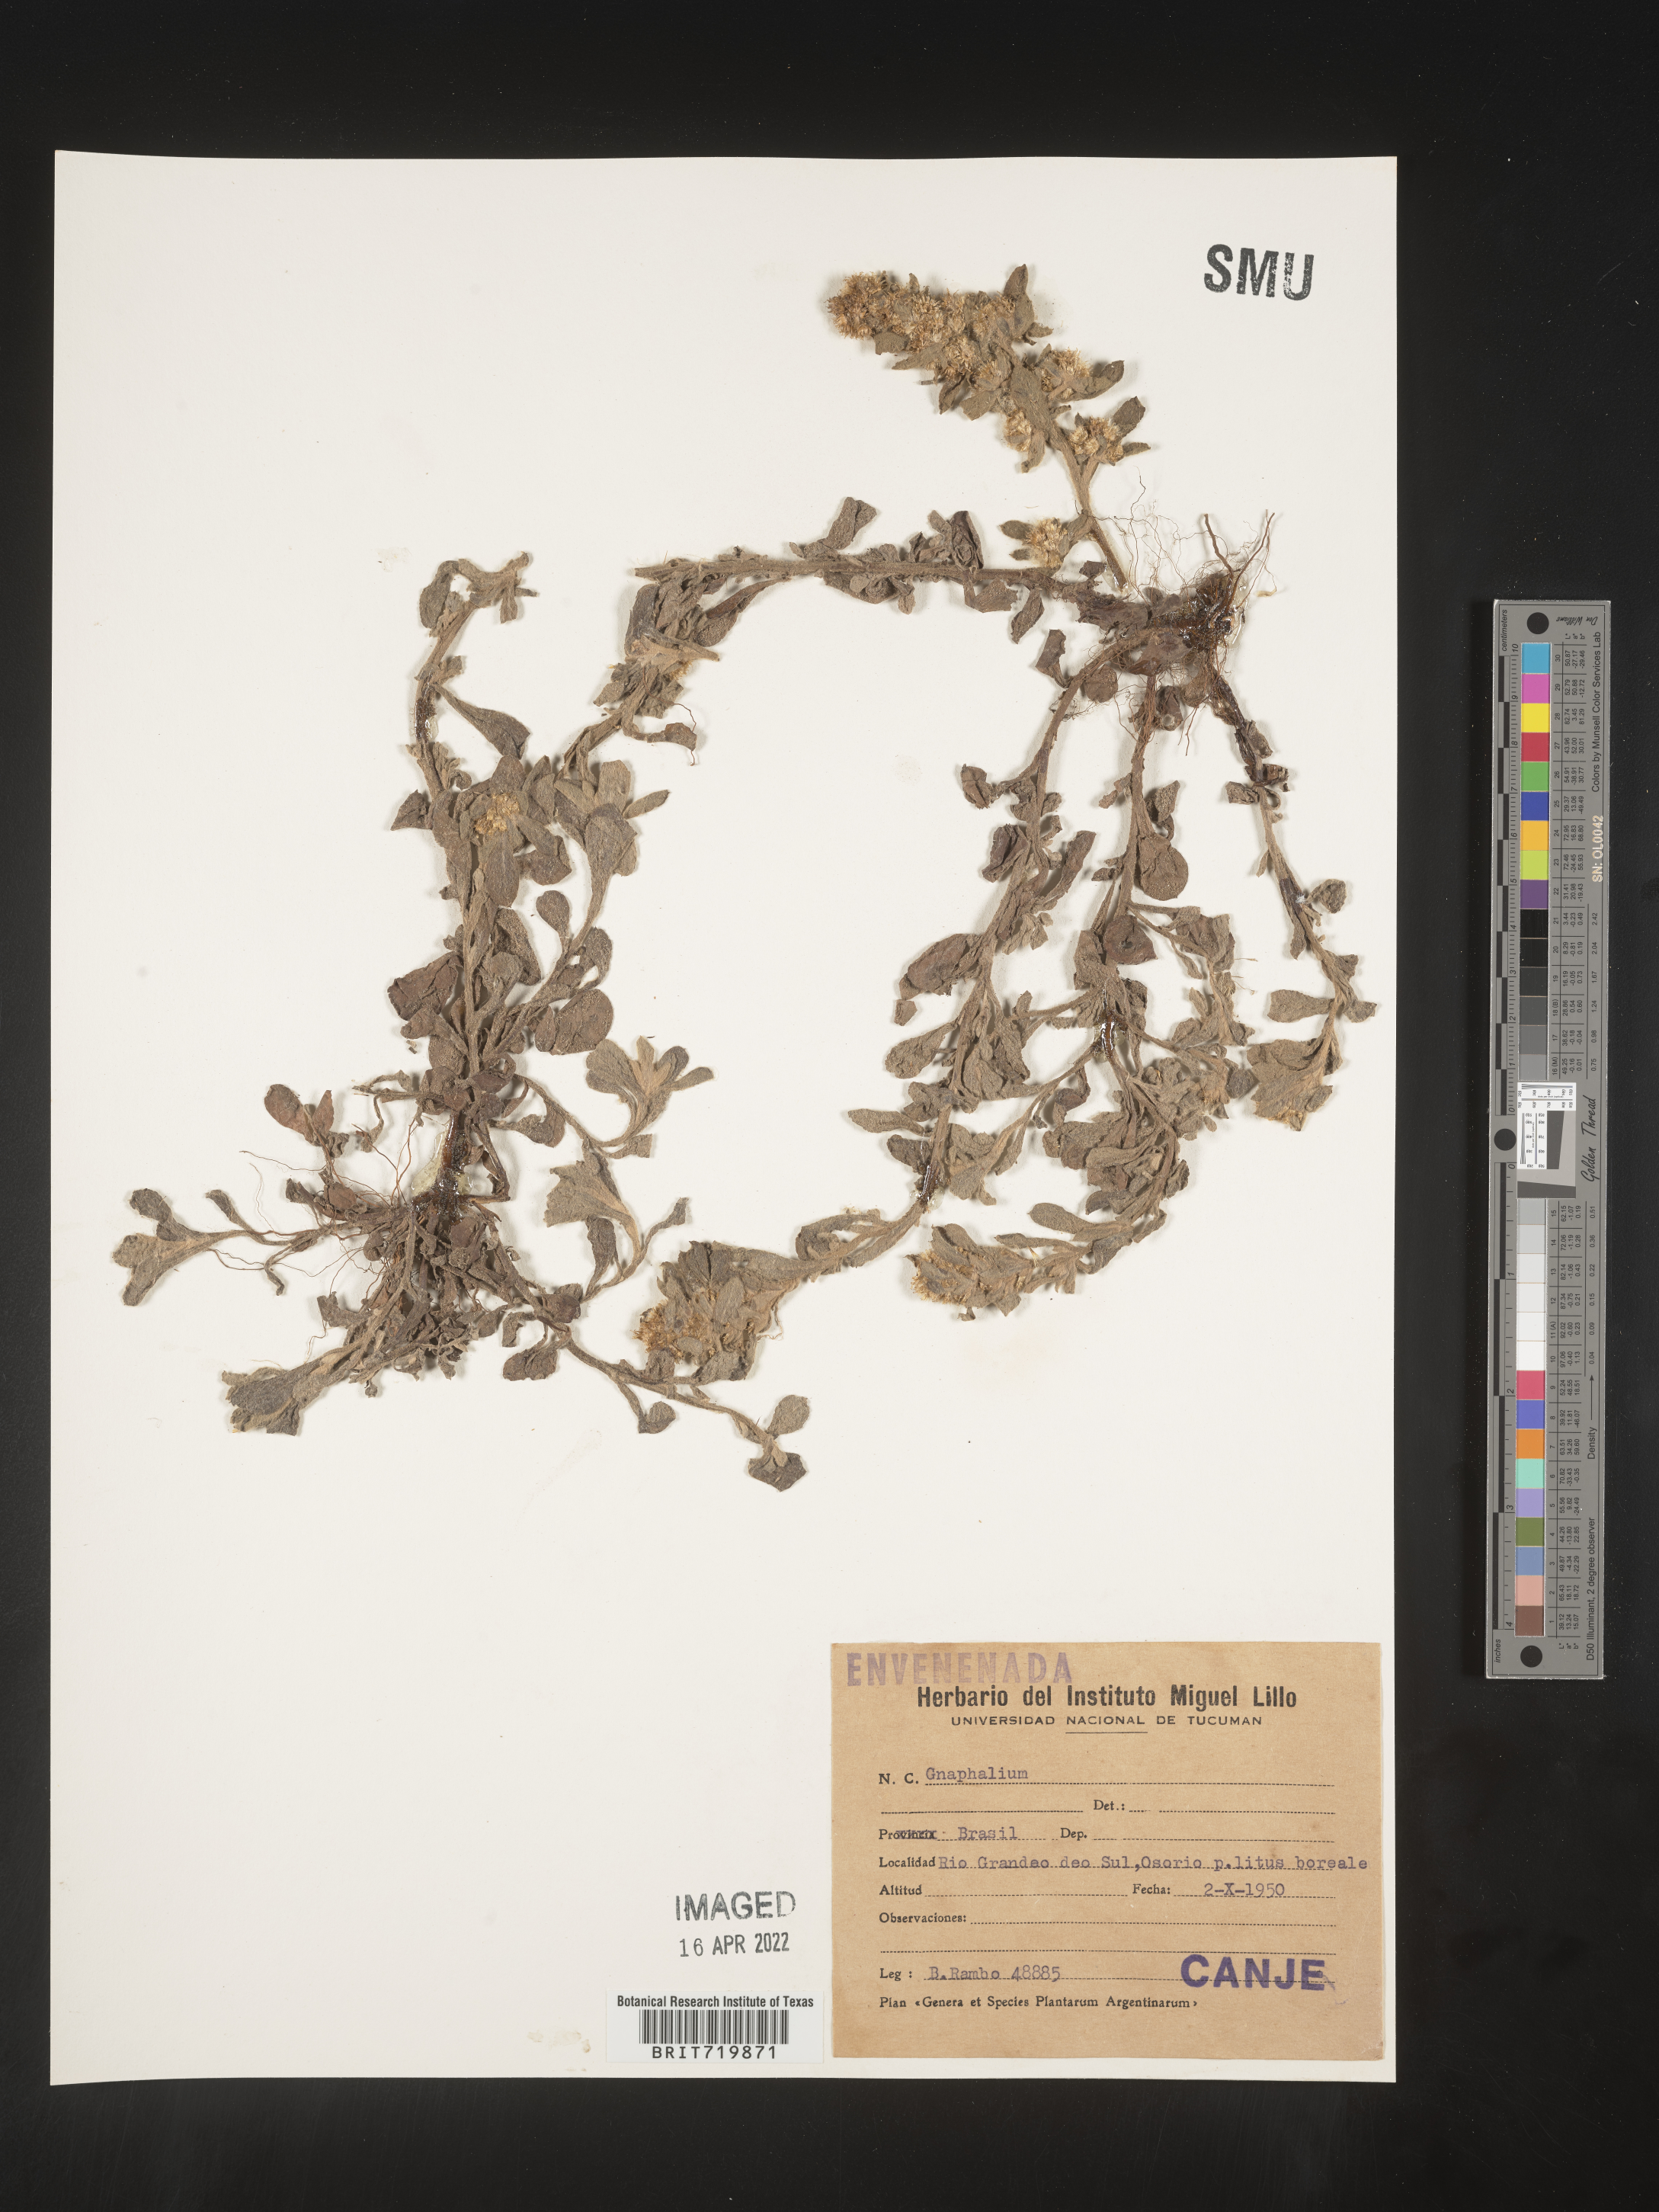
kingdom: Plantae
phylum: Tracheophyta
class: Magnoliopsida
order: Asterales
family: Asteraceae
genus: Gamochaeta
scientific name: Gamochaeta
